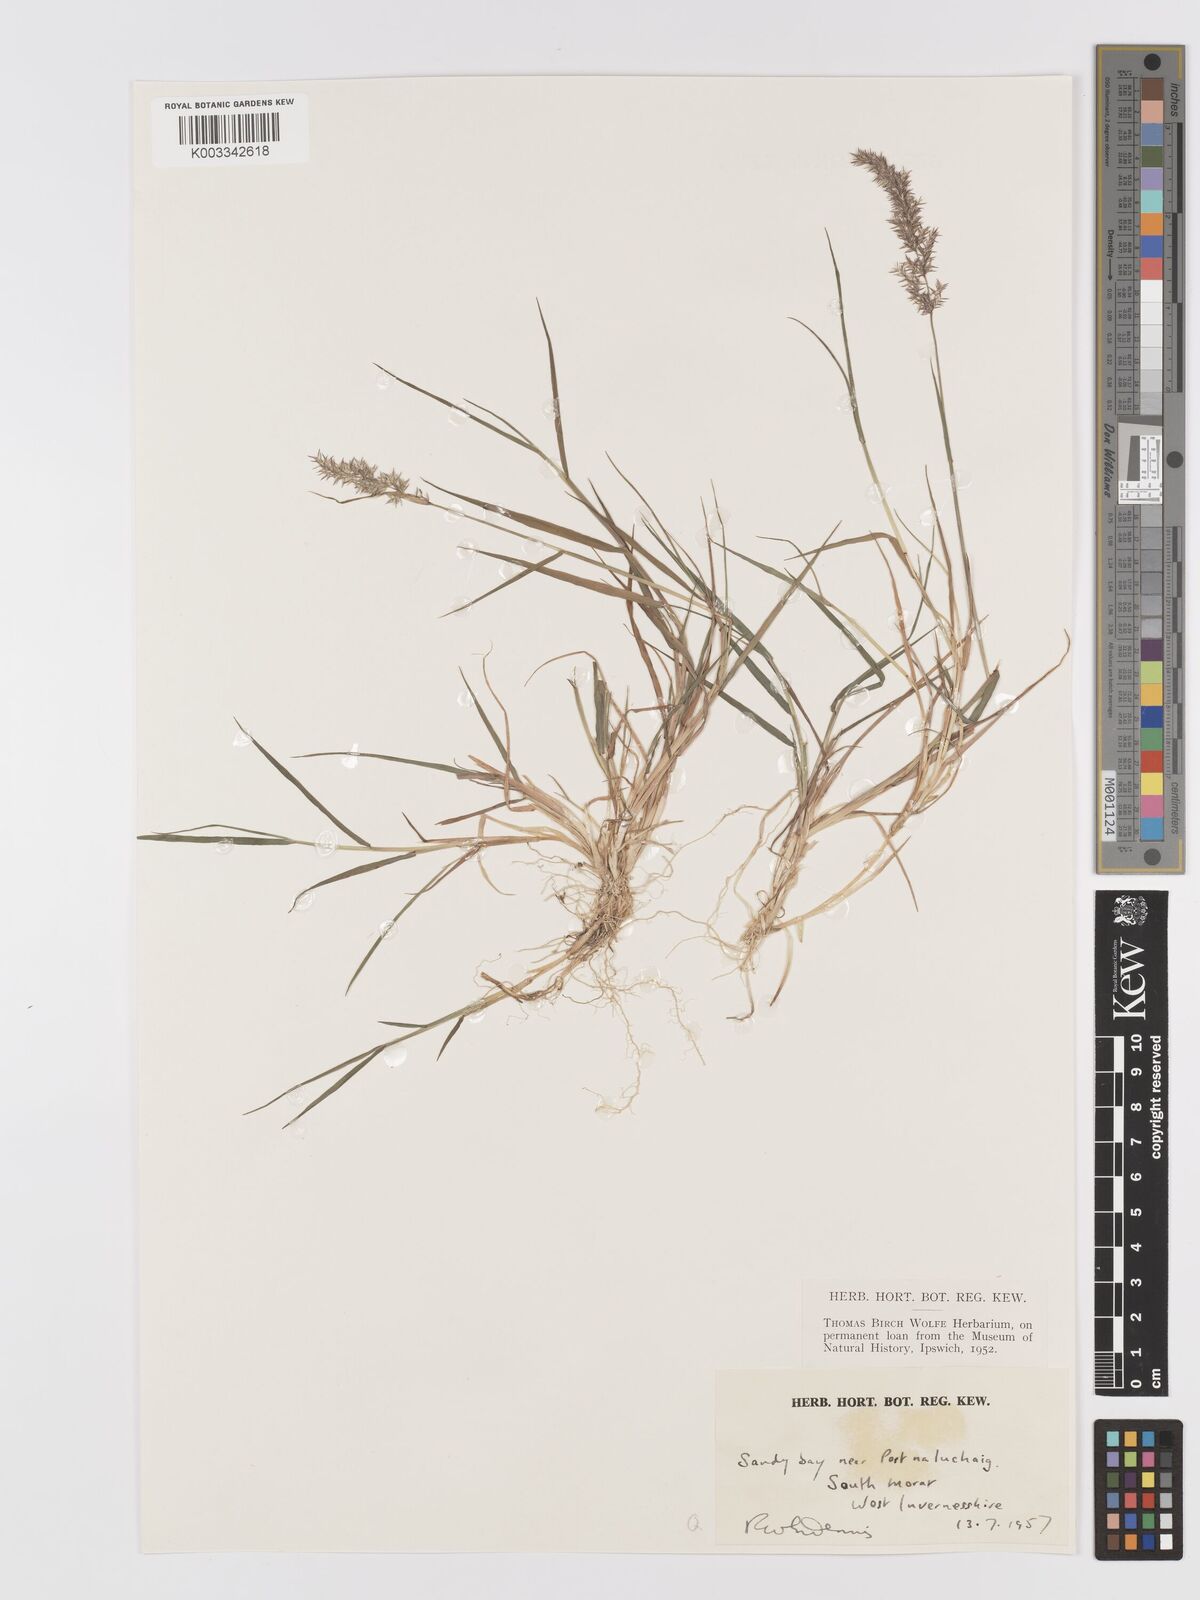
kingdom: Plantae
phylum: Tracheophyta
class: Liliopsida
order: Poales
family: Poaceae
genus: Agrostis
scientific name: Agrostis
